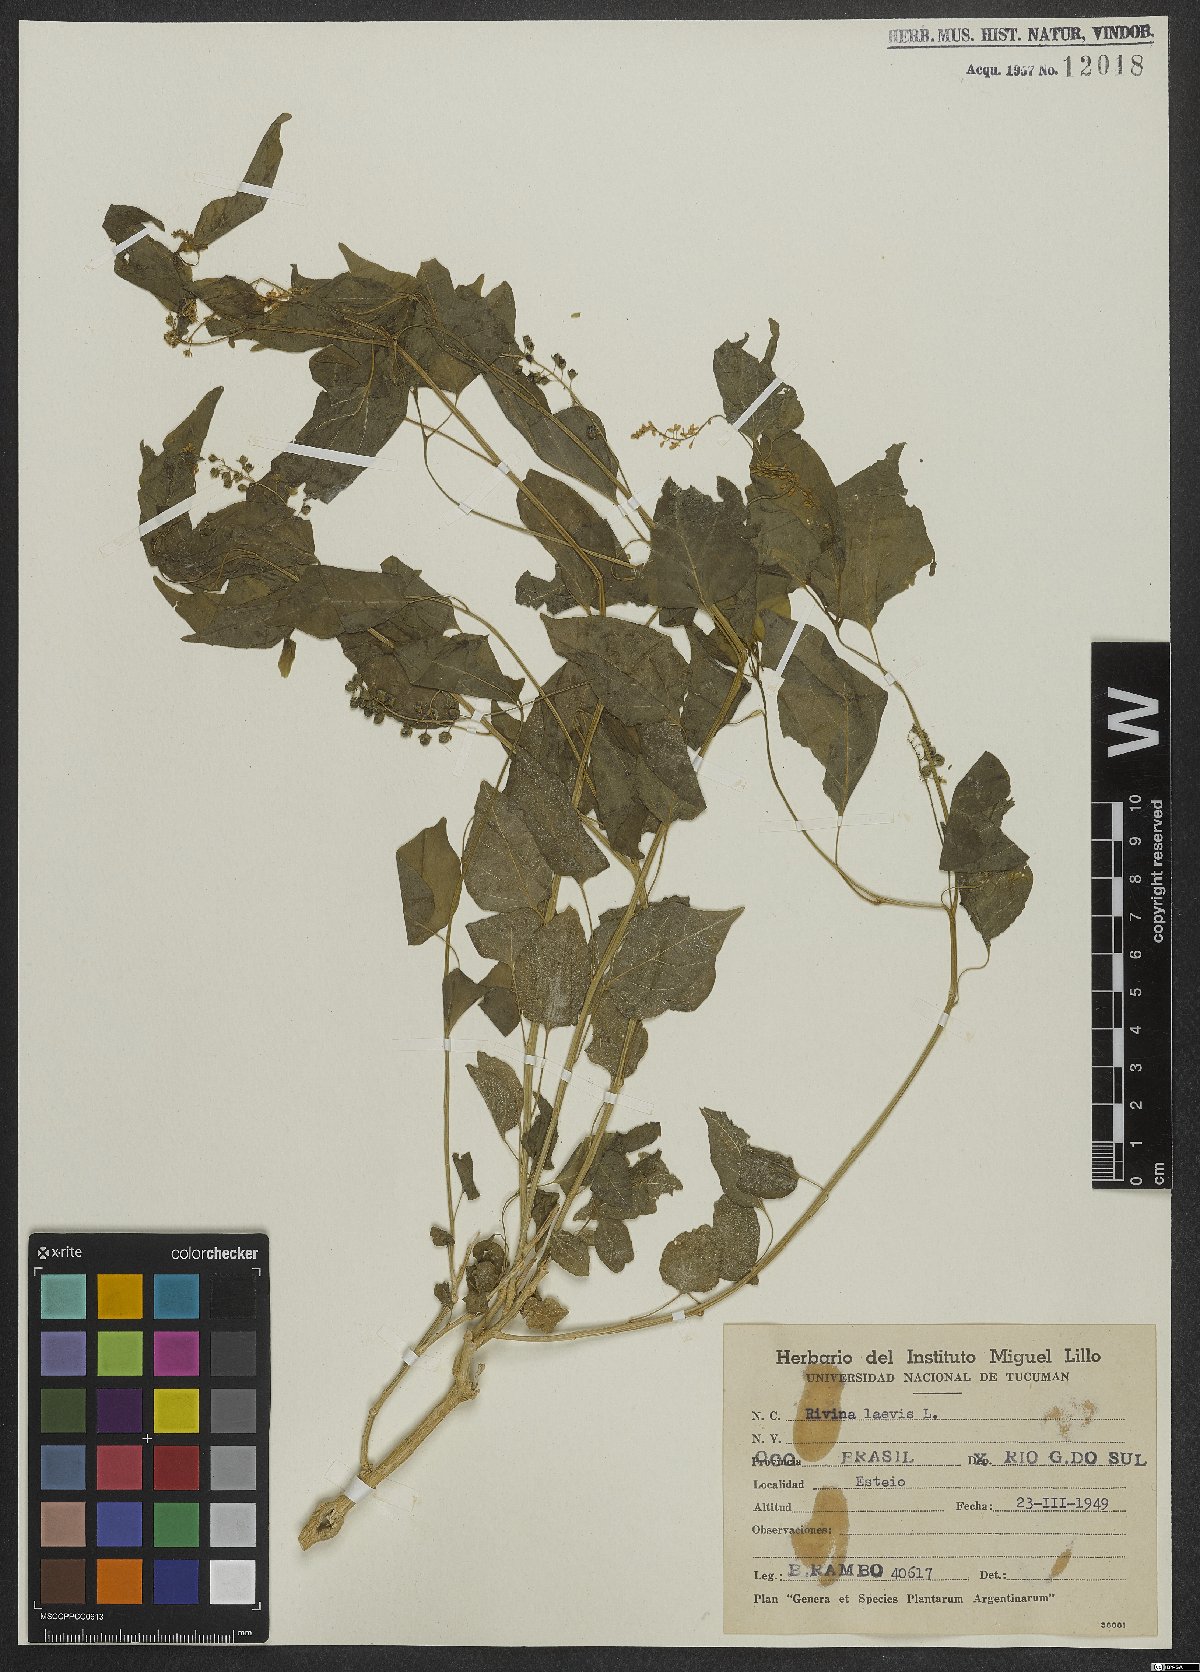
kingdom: Plantae
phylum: Tracheophyta
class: Magnoliopsida
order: Caryophyllales
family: Phytolaccaceae
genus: Rivina
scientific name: Rivina humilis
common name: Rougeplant
